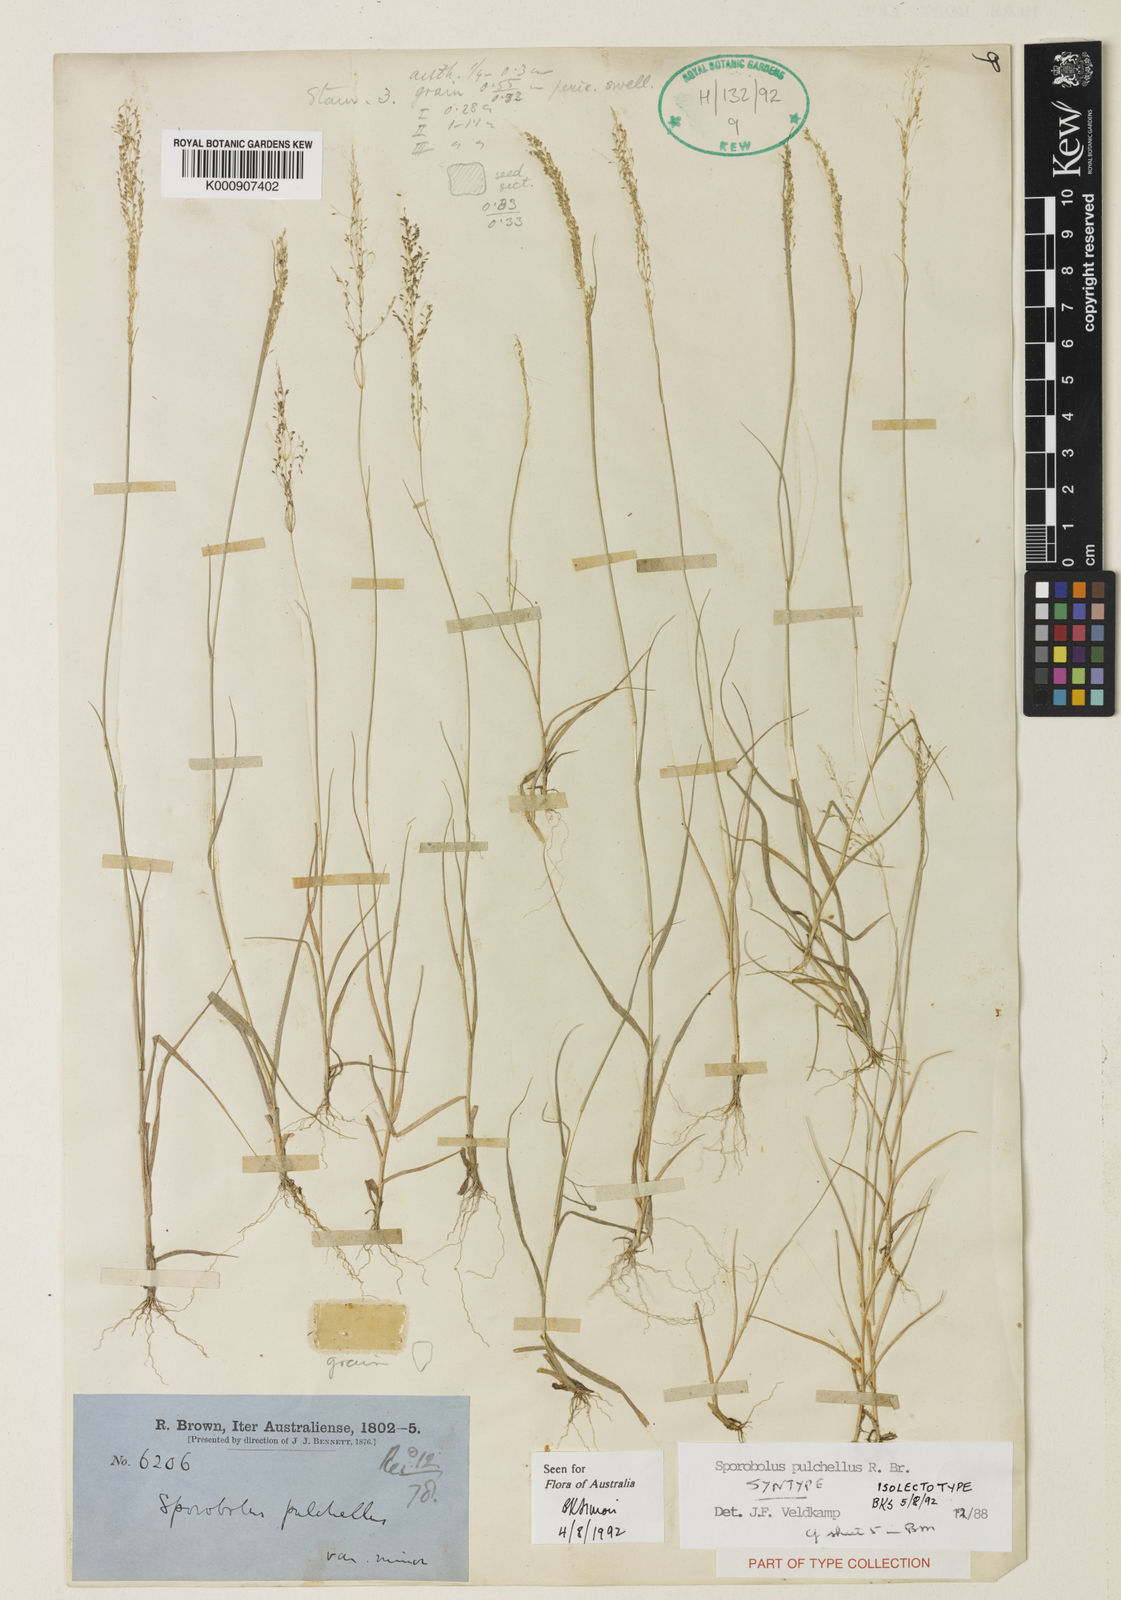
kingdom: Plantae
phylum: Tracheophyta
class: Liliopsida
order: Poales
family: Poaceae
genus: Sporobolus
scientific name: Sporobolus pulchellus
